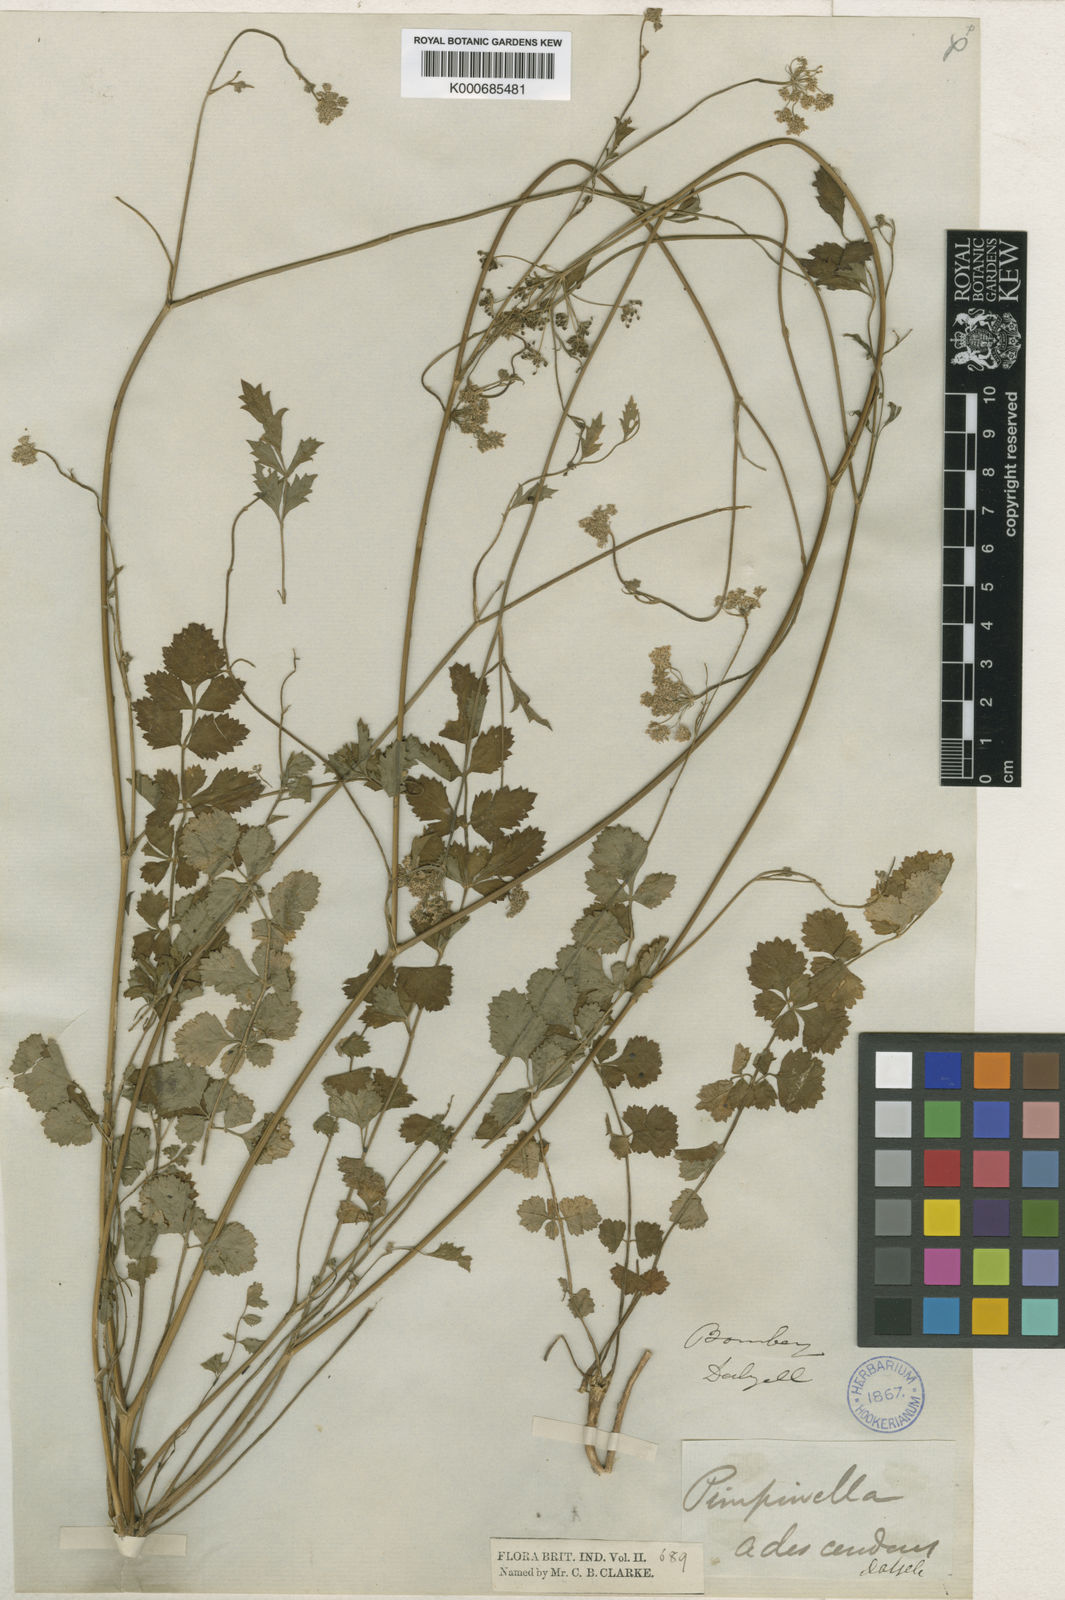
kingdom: Plantae
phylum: Tracheophyta
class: Magnoliopsida
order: Apiales
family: Apiaceae
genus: Pimpinella
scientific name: Pimpinella adscendens
